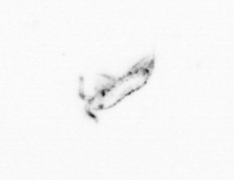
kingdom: Animalia
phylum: Annelida
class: Polychaeta
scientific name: Polychaeta
